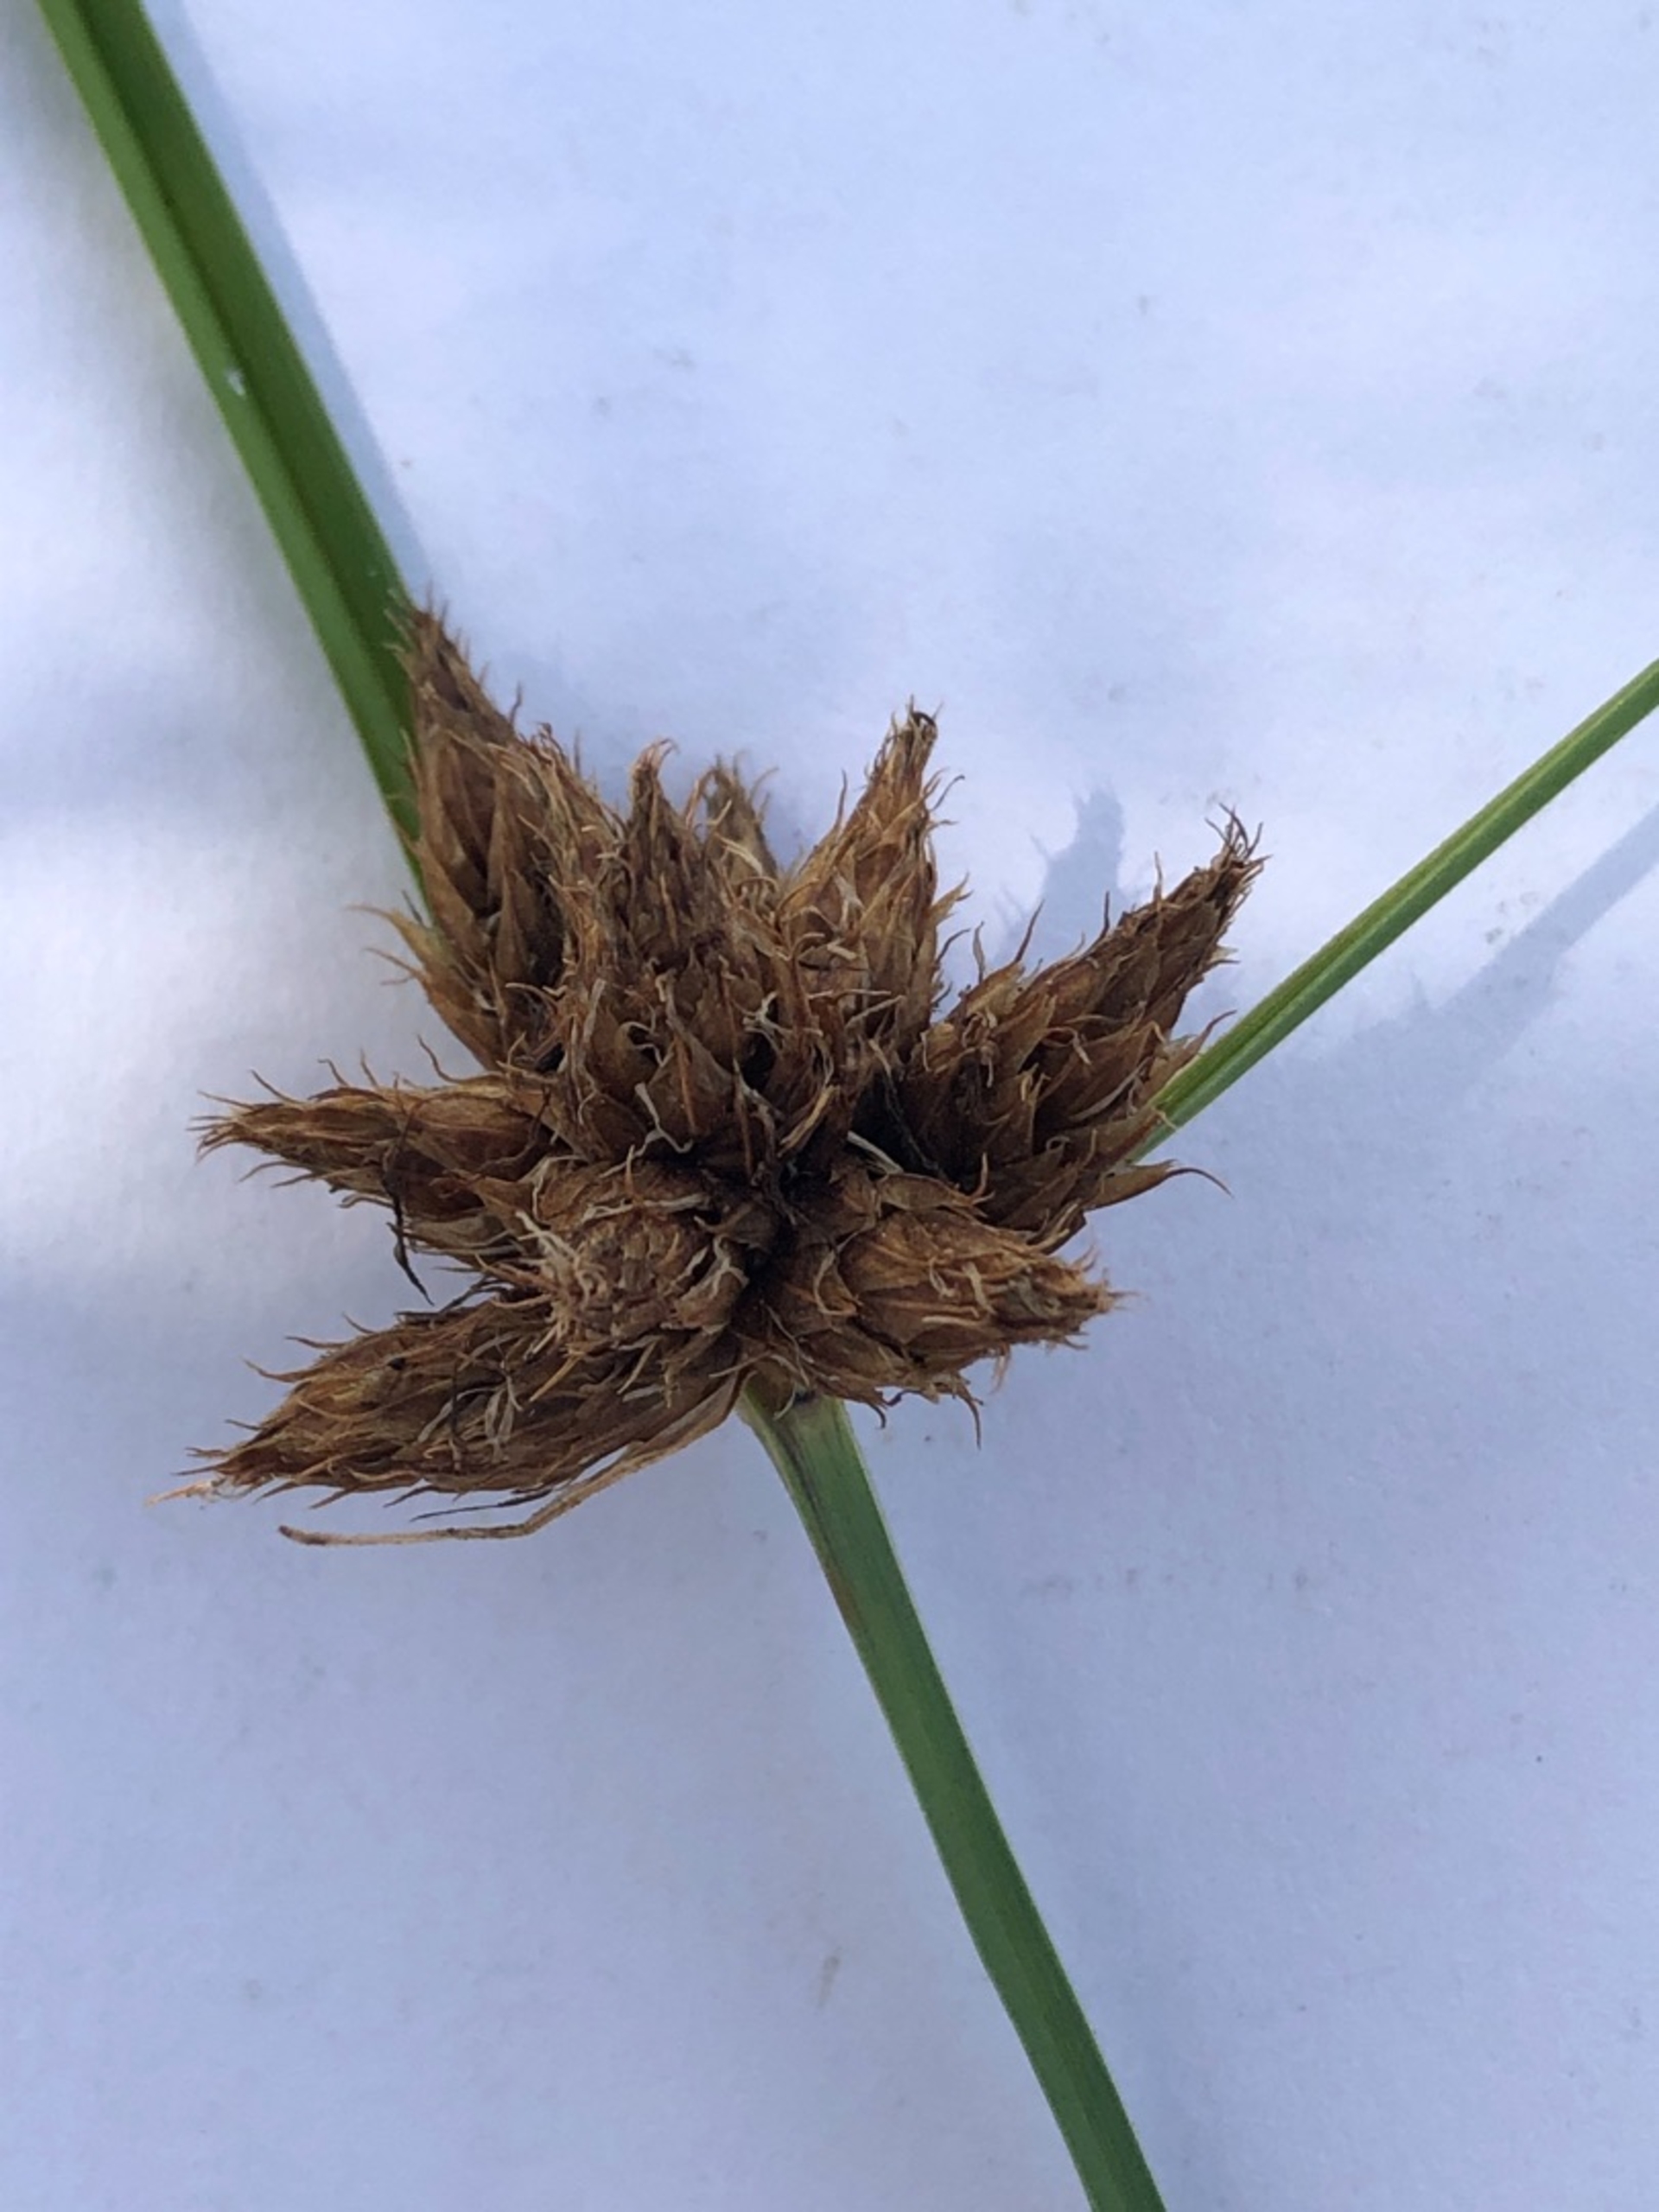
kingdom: Plantae
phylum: Tracheophyta
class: Liliopsida
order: Poales
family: Cyperaceae
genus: Bolboschoenus
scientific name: Bolboschoenus maritimus
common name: Strand-kogleaks
